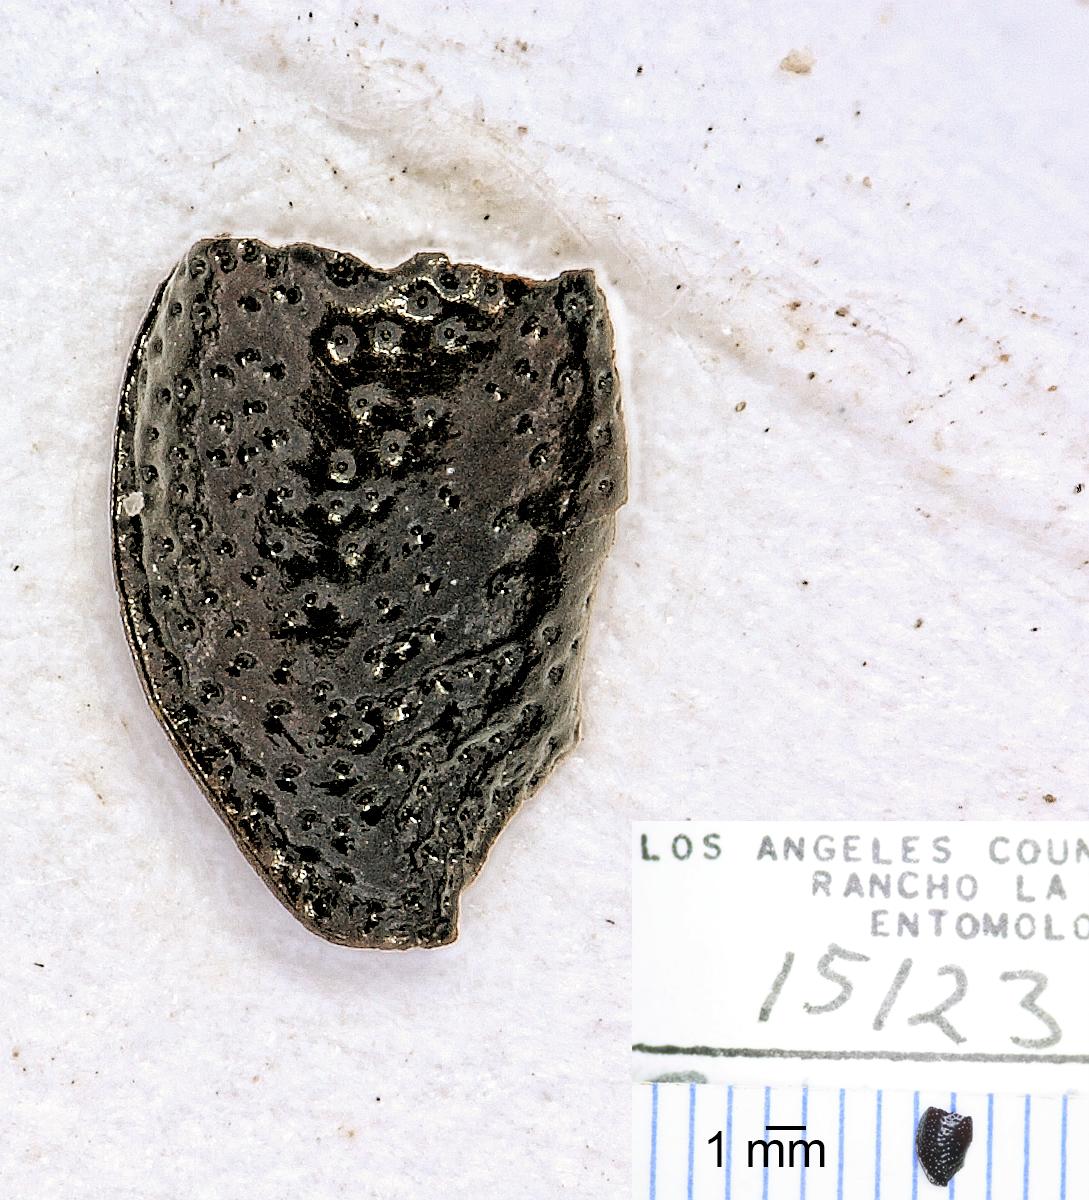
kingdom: Animalia
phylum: Arthropoda
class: Insecta
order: Coleoptera
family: Carabidae
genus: Dicheirus
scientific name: Dicheirus
